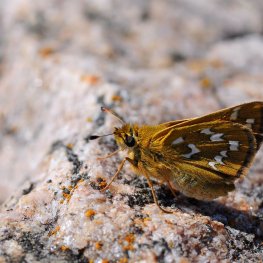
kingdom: Animalia
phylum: Arthropoda
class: Insecta
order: Lepidoptera
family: Hesperiidae
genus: Hesperia
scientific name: Hesperia comma
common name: Common Branded Skipper
